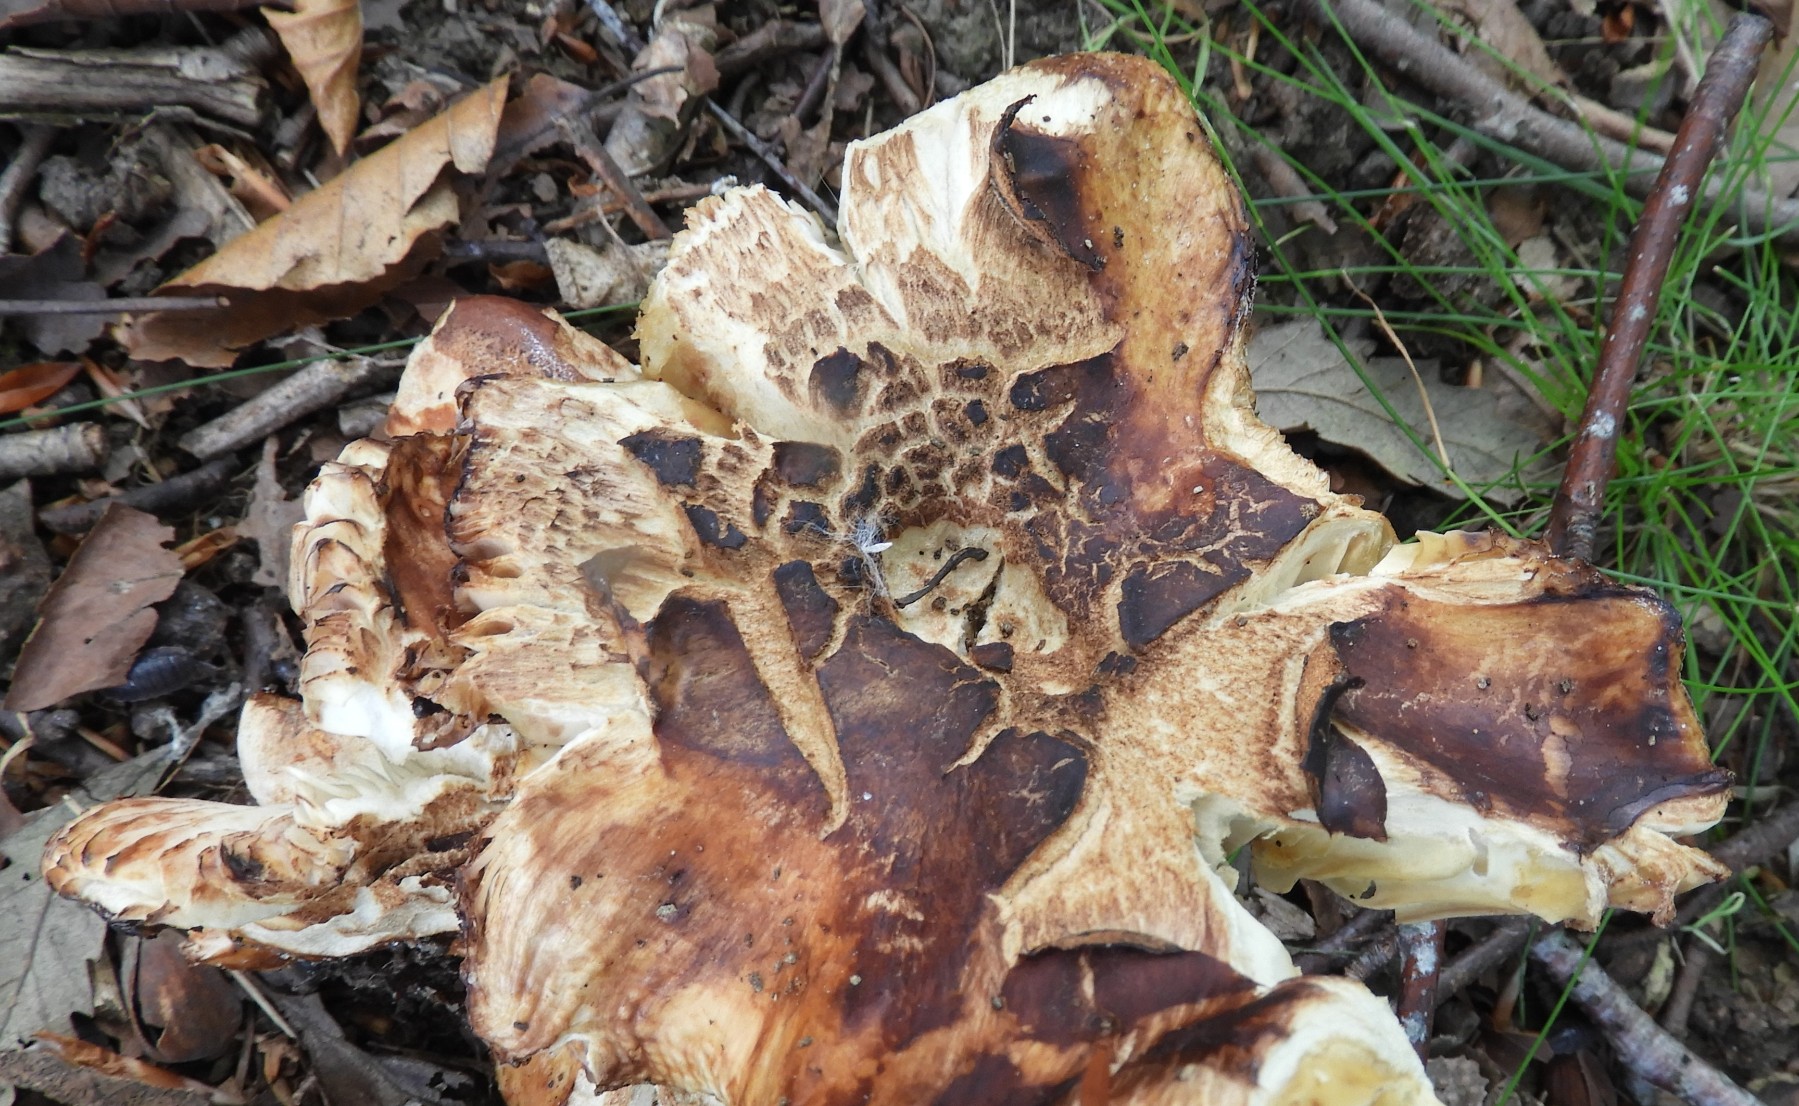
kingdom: Fungi
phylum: Basidiomycota
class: Agaricomycetes
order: Russulales
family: Russulaceae
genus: Russula
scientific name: Russula foetens
